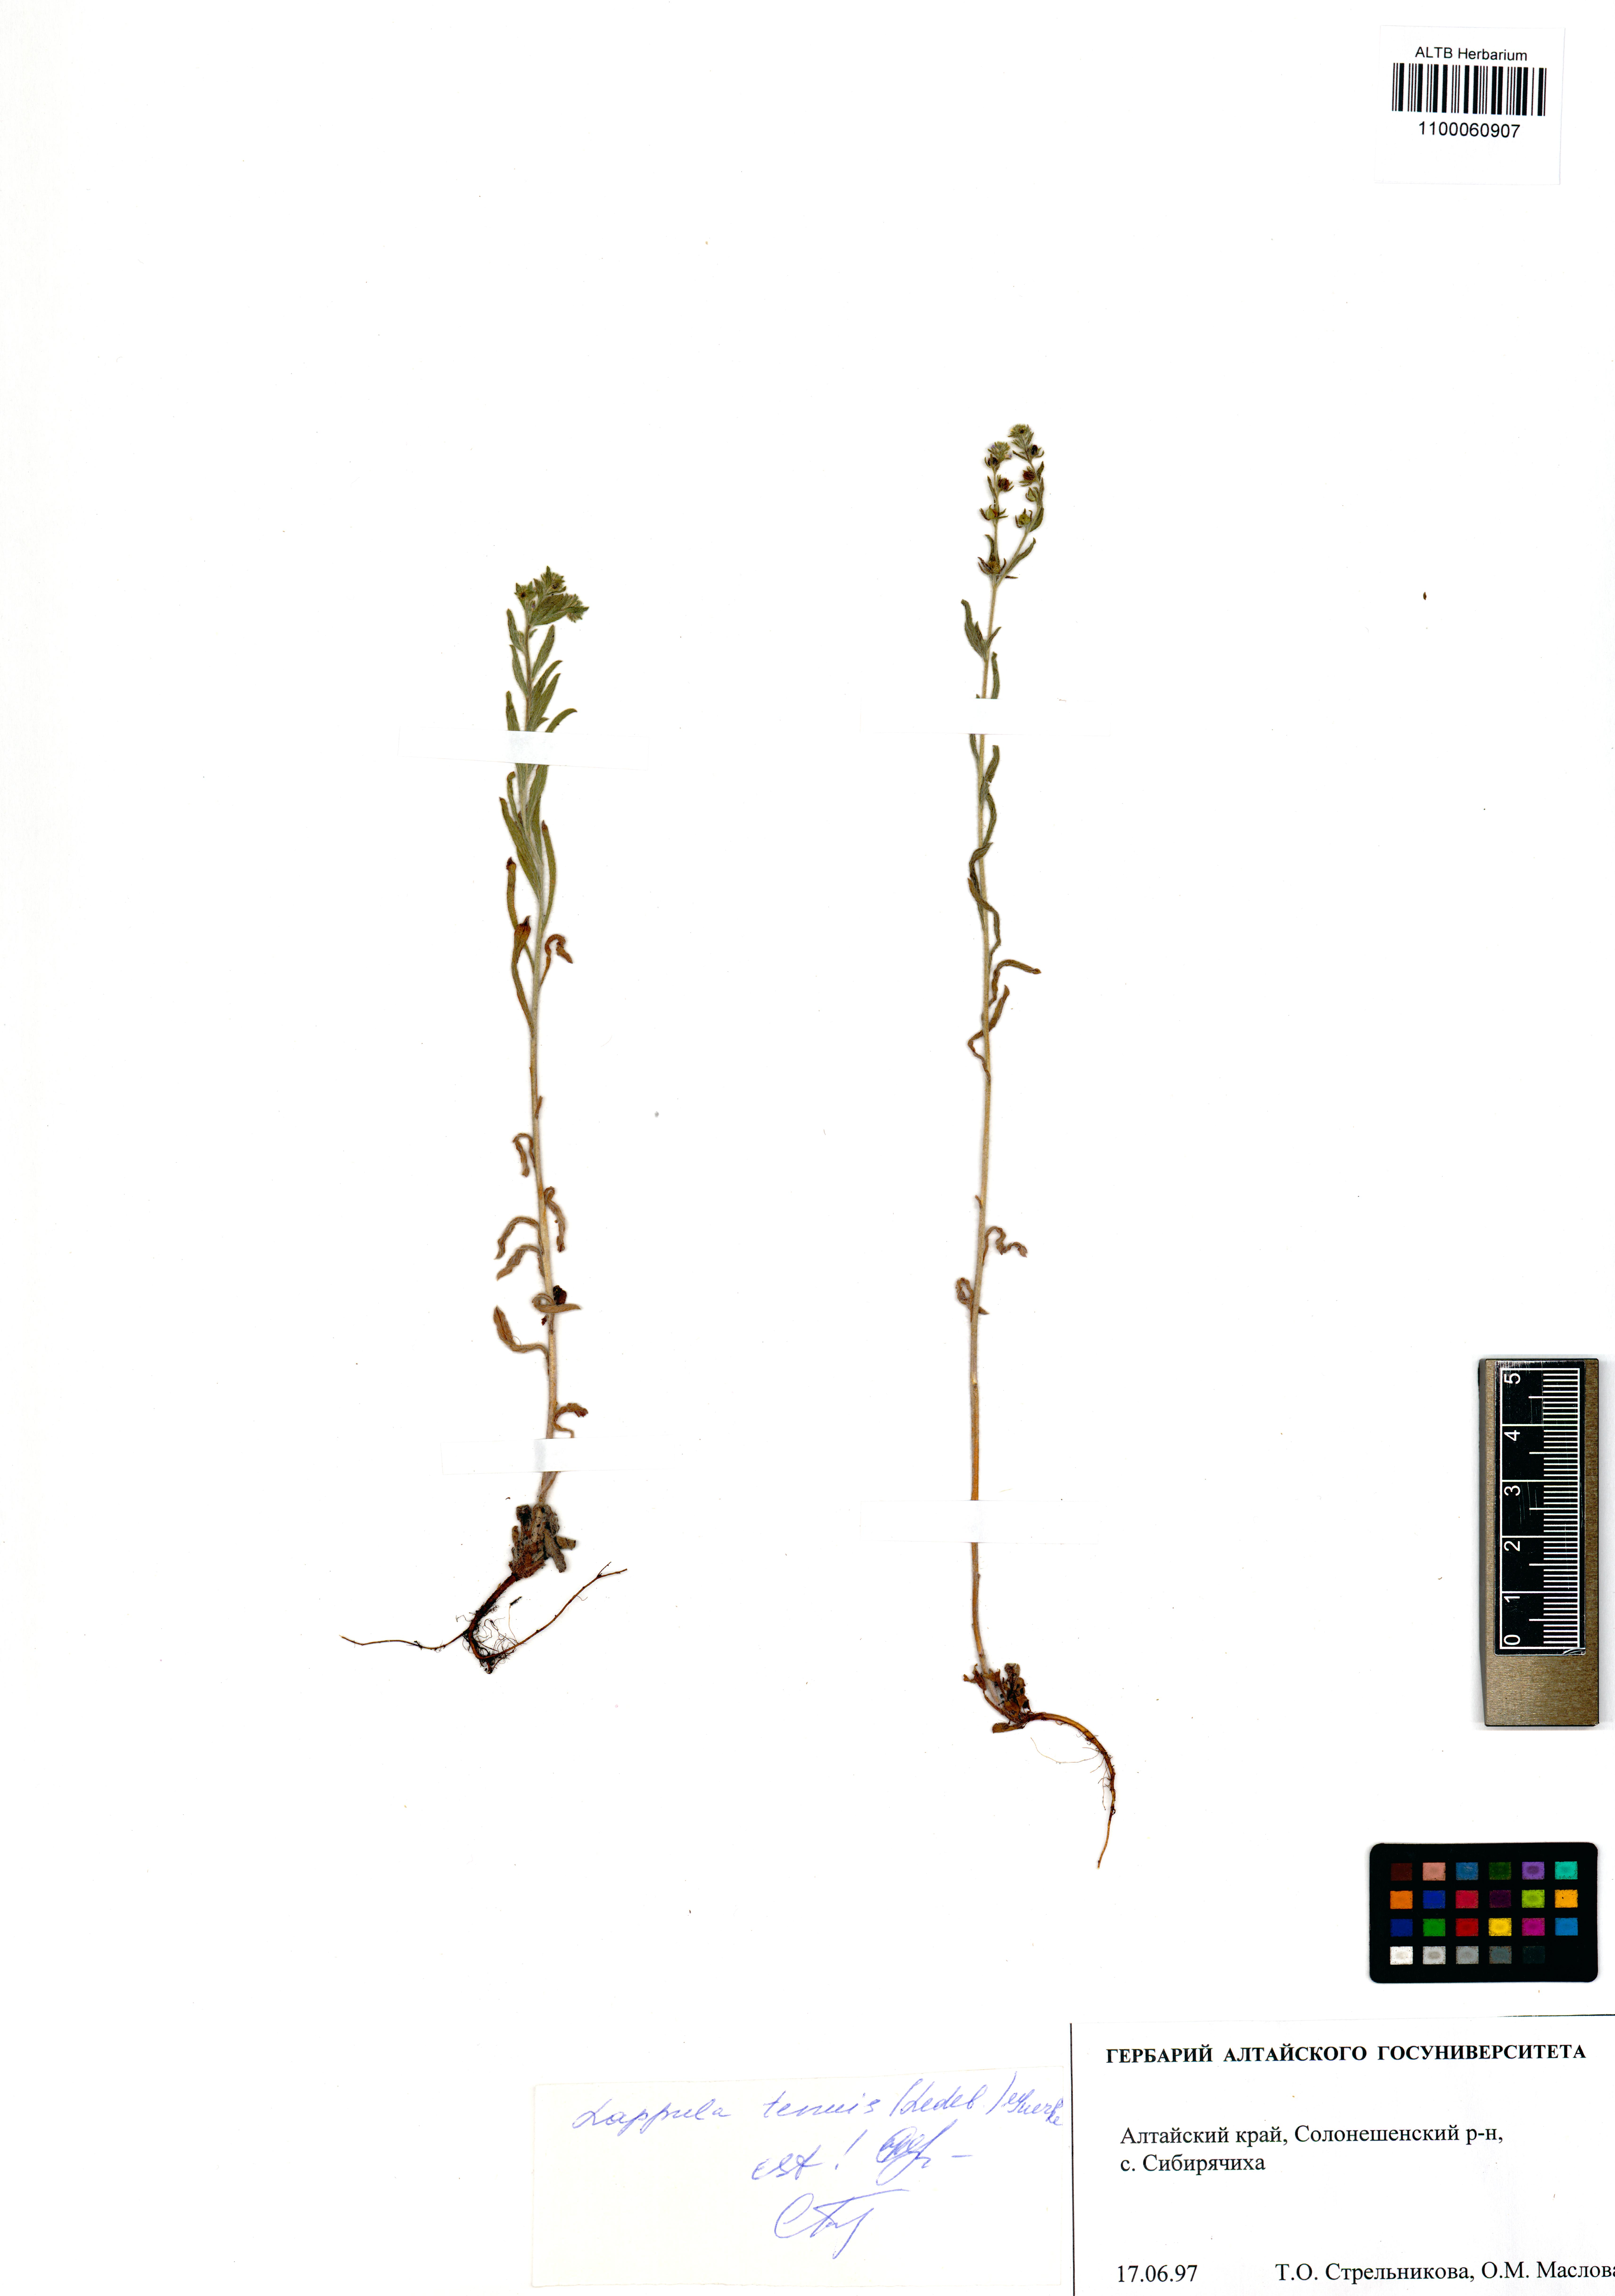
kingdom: Plantae
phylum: Tracheophyta
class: Magnoliopsida
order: Boraginales
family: Boraginaceae
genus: Lappula
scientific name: Lappula tenuis
